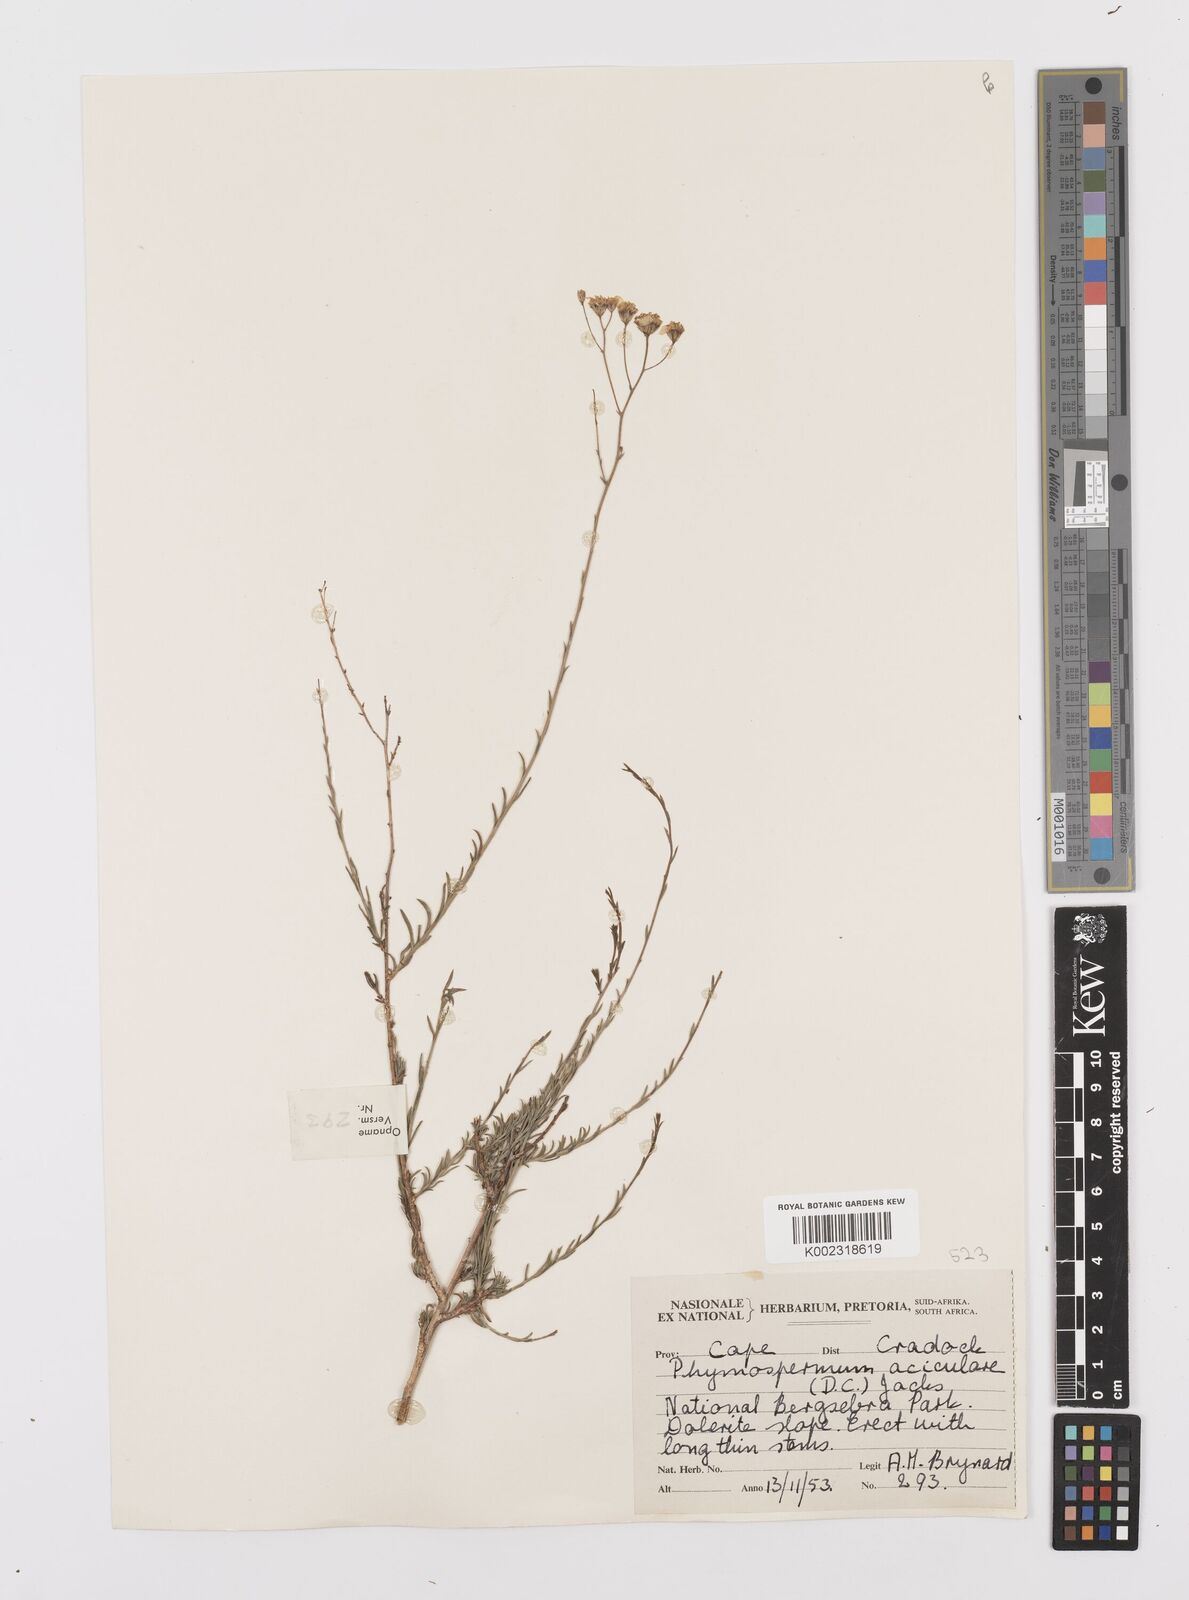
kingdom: Plantae
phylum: Tracheophyta
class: Magnoliopsida
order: Asterales
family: Asteraceae
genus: Phymaspermum
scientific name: Phymaspermum aciculare
